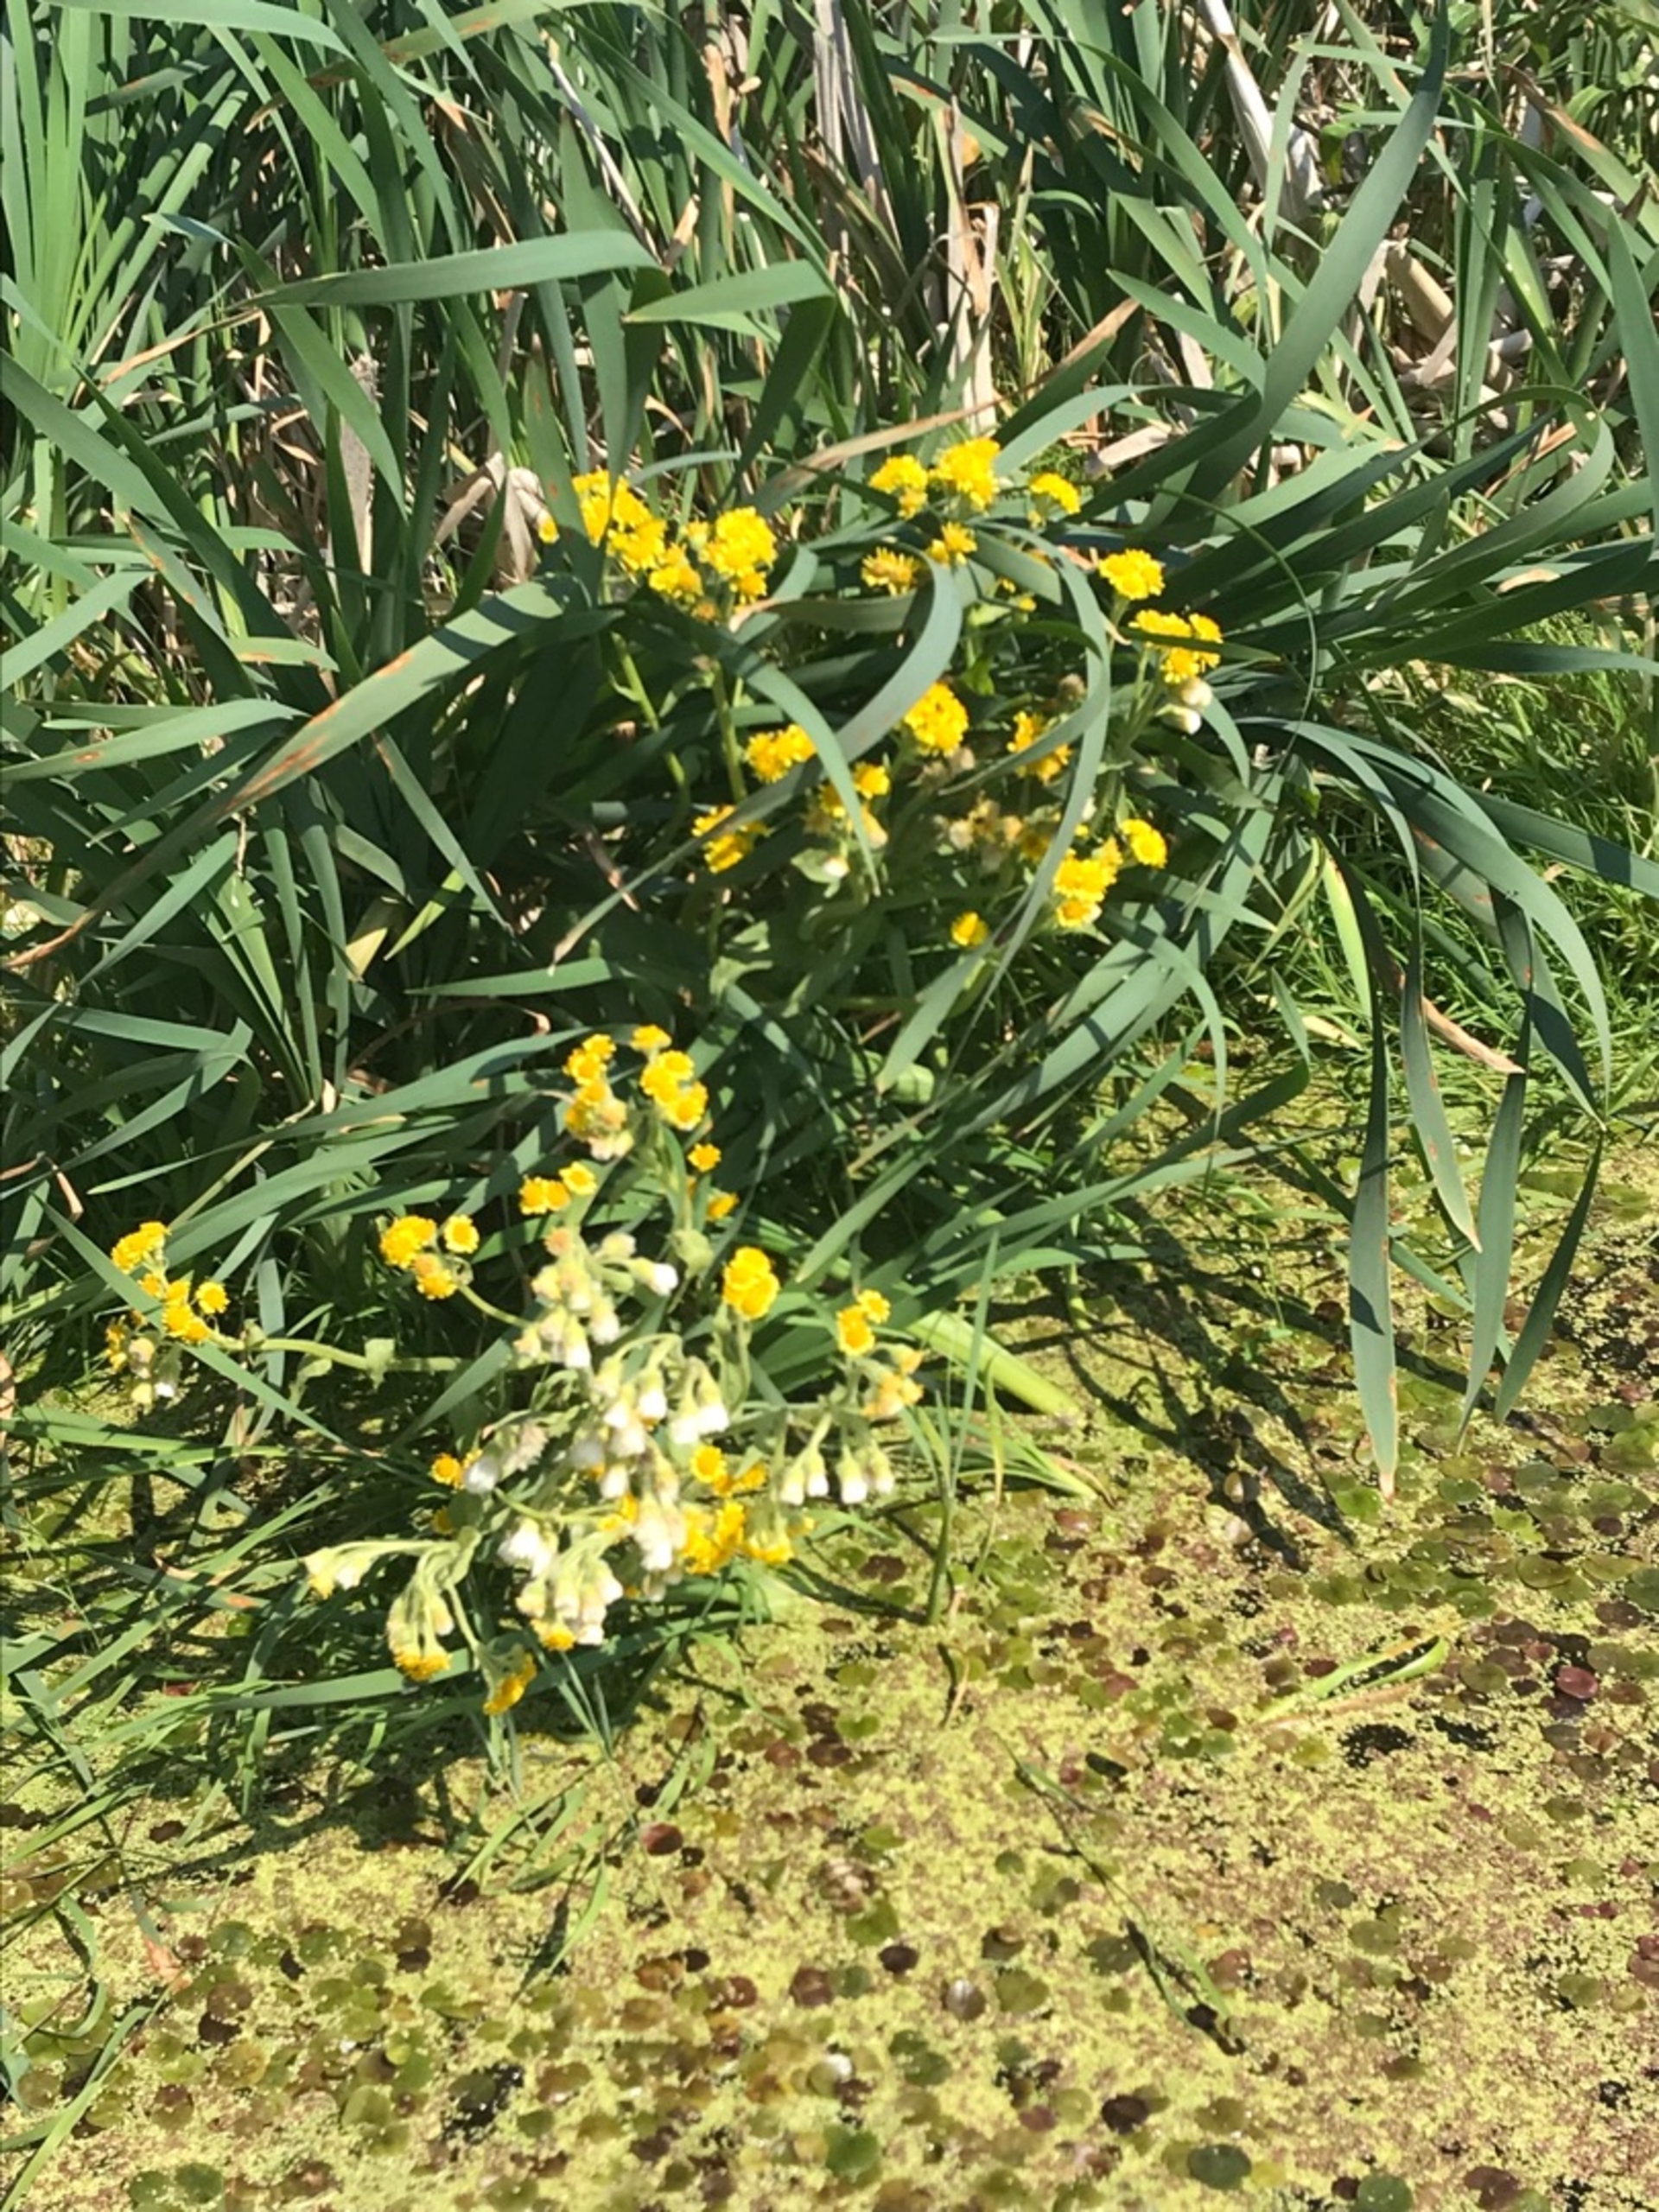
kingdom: Plantae
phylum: Tracheophyta
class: Magnoliopsida
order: Asterales
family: Asteraceae
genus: Tephroseris
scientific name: Tephroseris palustris
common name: Kær-fnokurt
